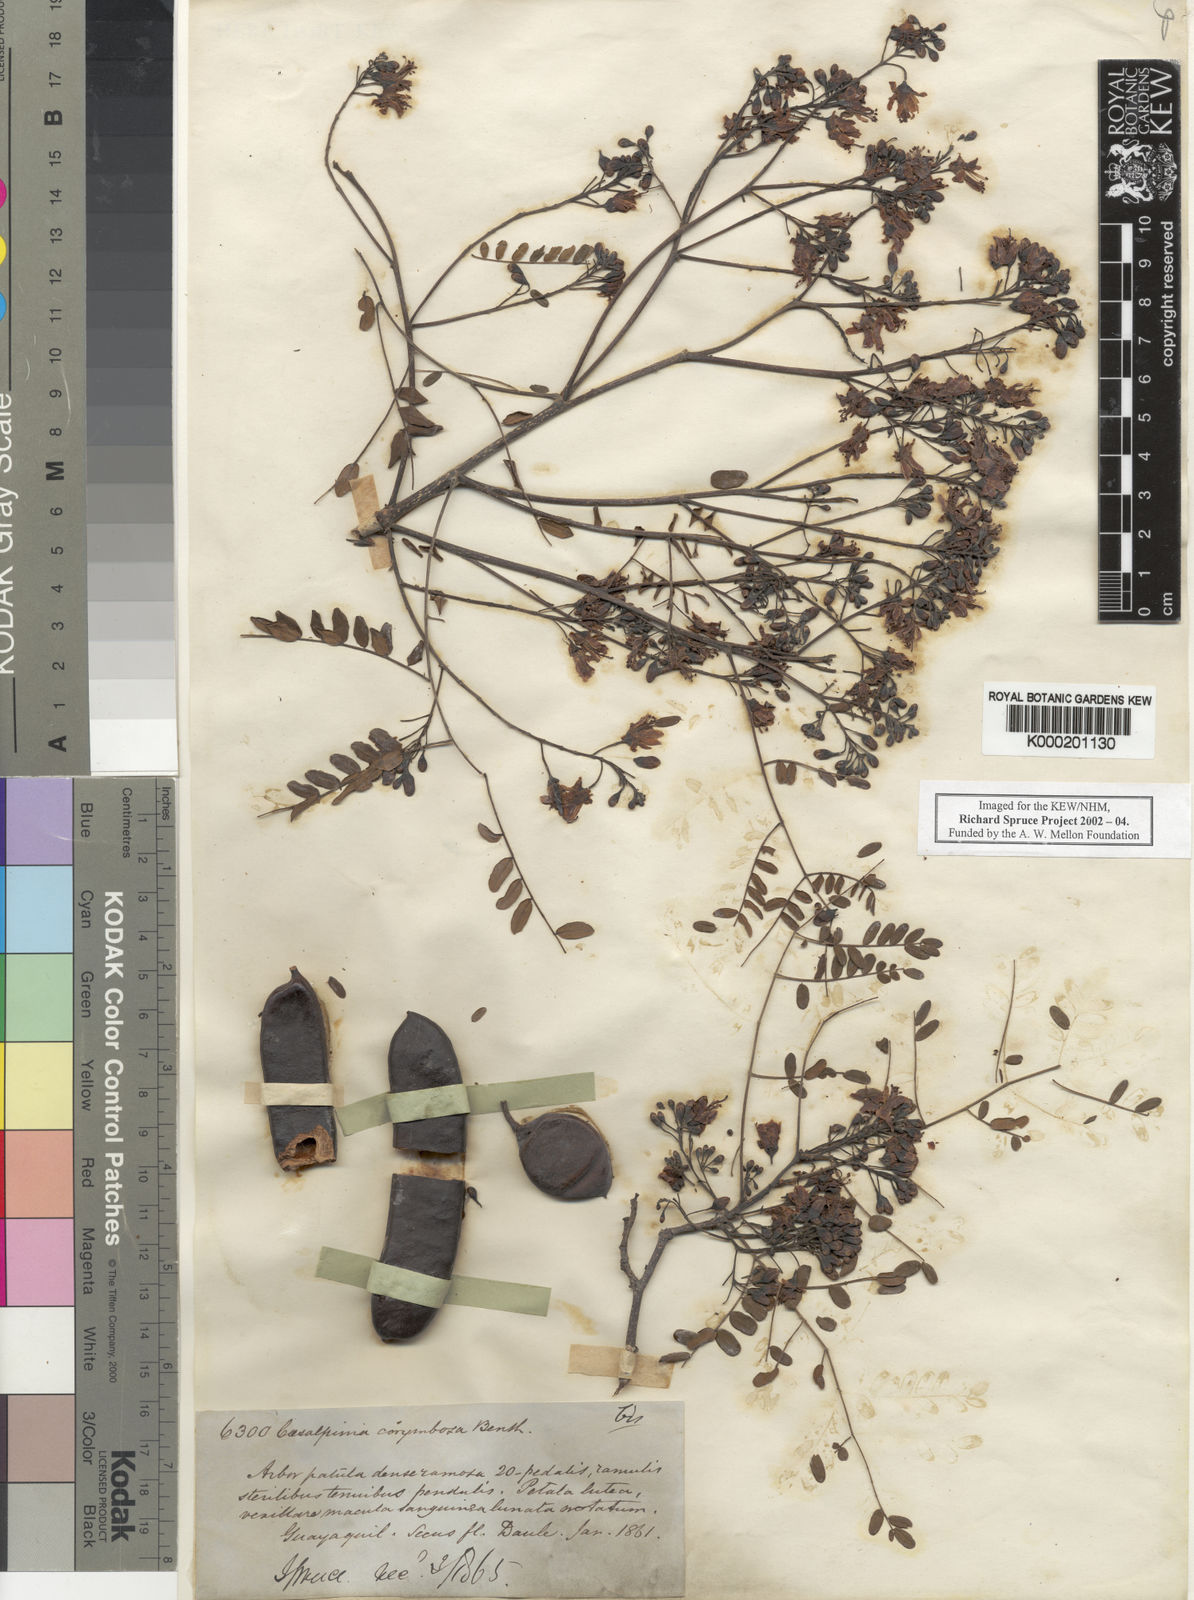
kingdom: Plantae
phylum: Tracheophyta
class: Magnoliopsida
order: Fabales
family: Fabaceae
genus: Libidibia
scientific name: Libidibia glabrata
